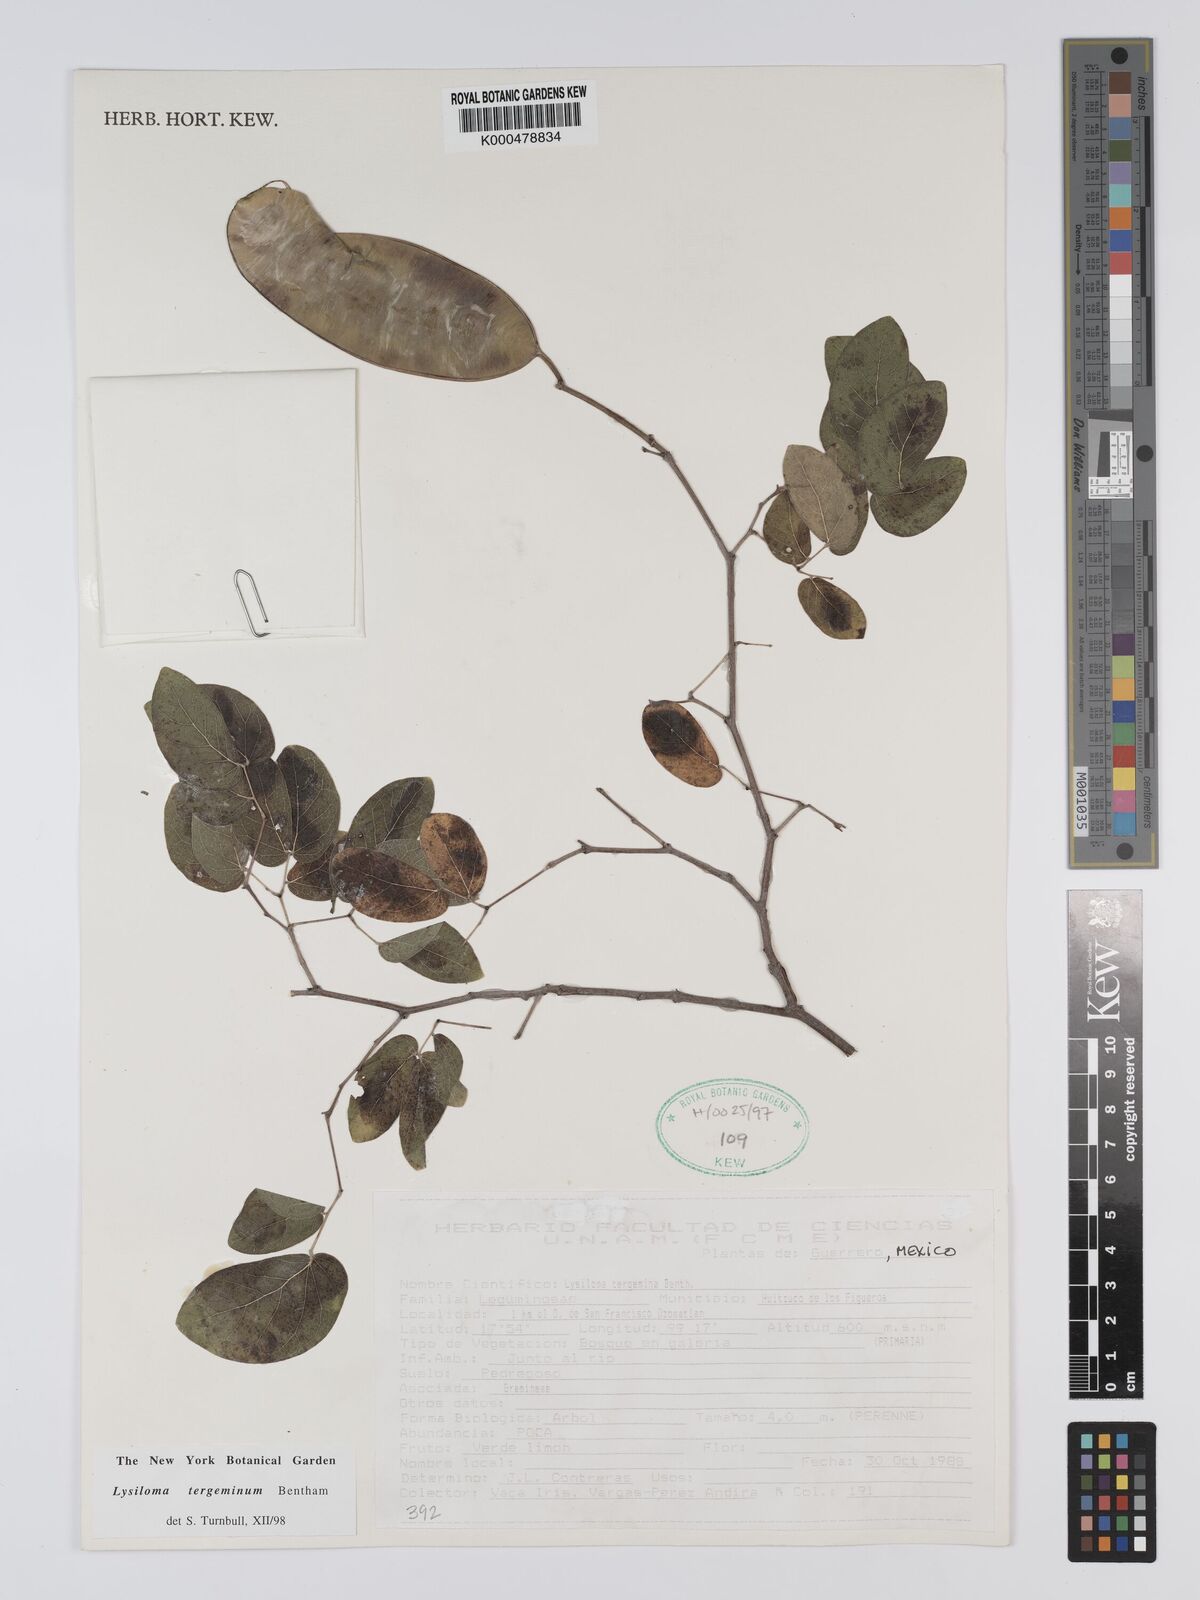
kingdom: Plantae
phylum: Tracheophyta
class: Magnoliopsida
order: Fabales
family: Fabaceae
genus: Lysiloma
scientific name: Lysiloma tergeminum
